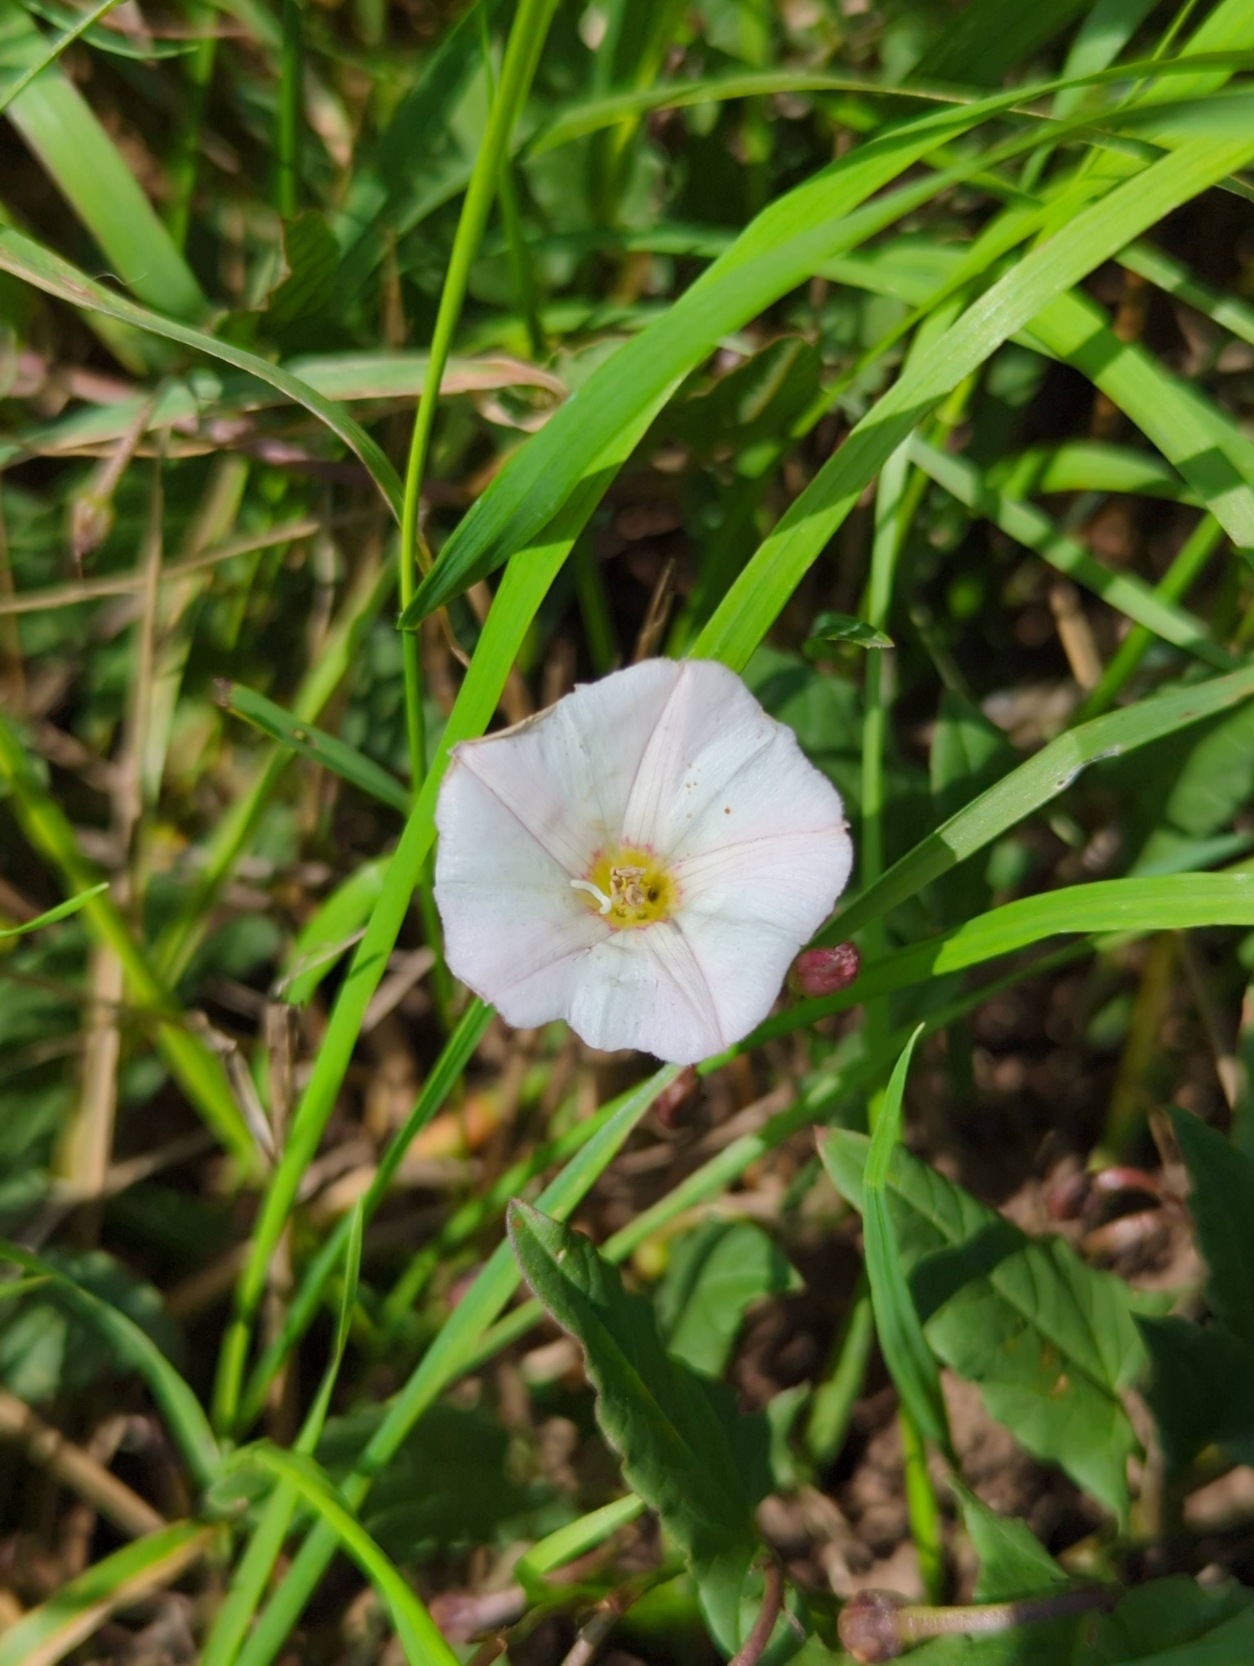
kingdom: Plantae
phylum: Tracheophyta
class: Magnoliopsida
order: Solanales
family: Convolvulaceae
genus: Convolvulus
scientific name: Convolvulus arvensis
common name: Ager-snerle
